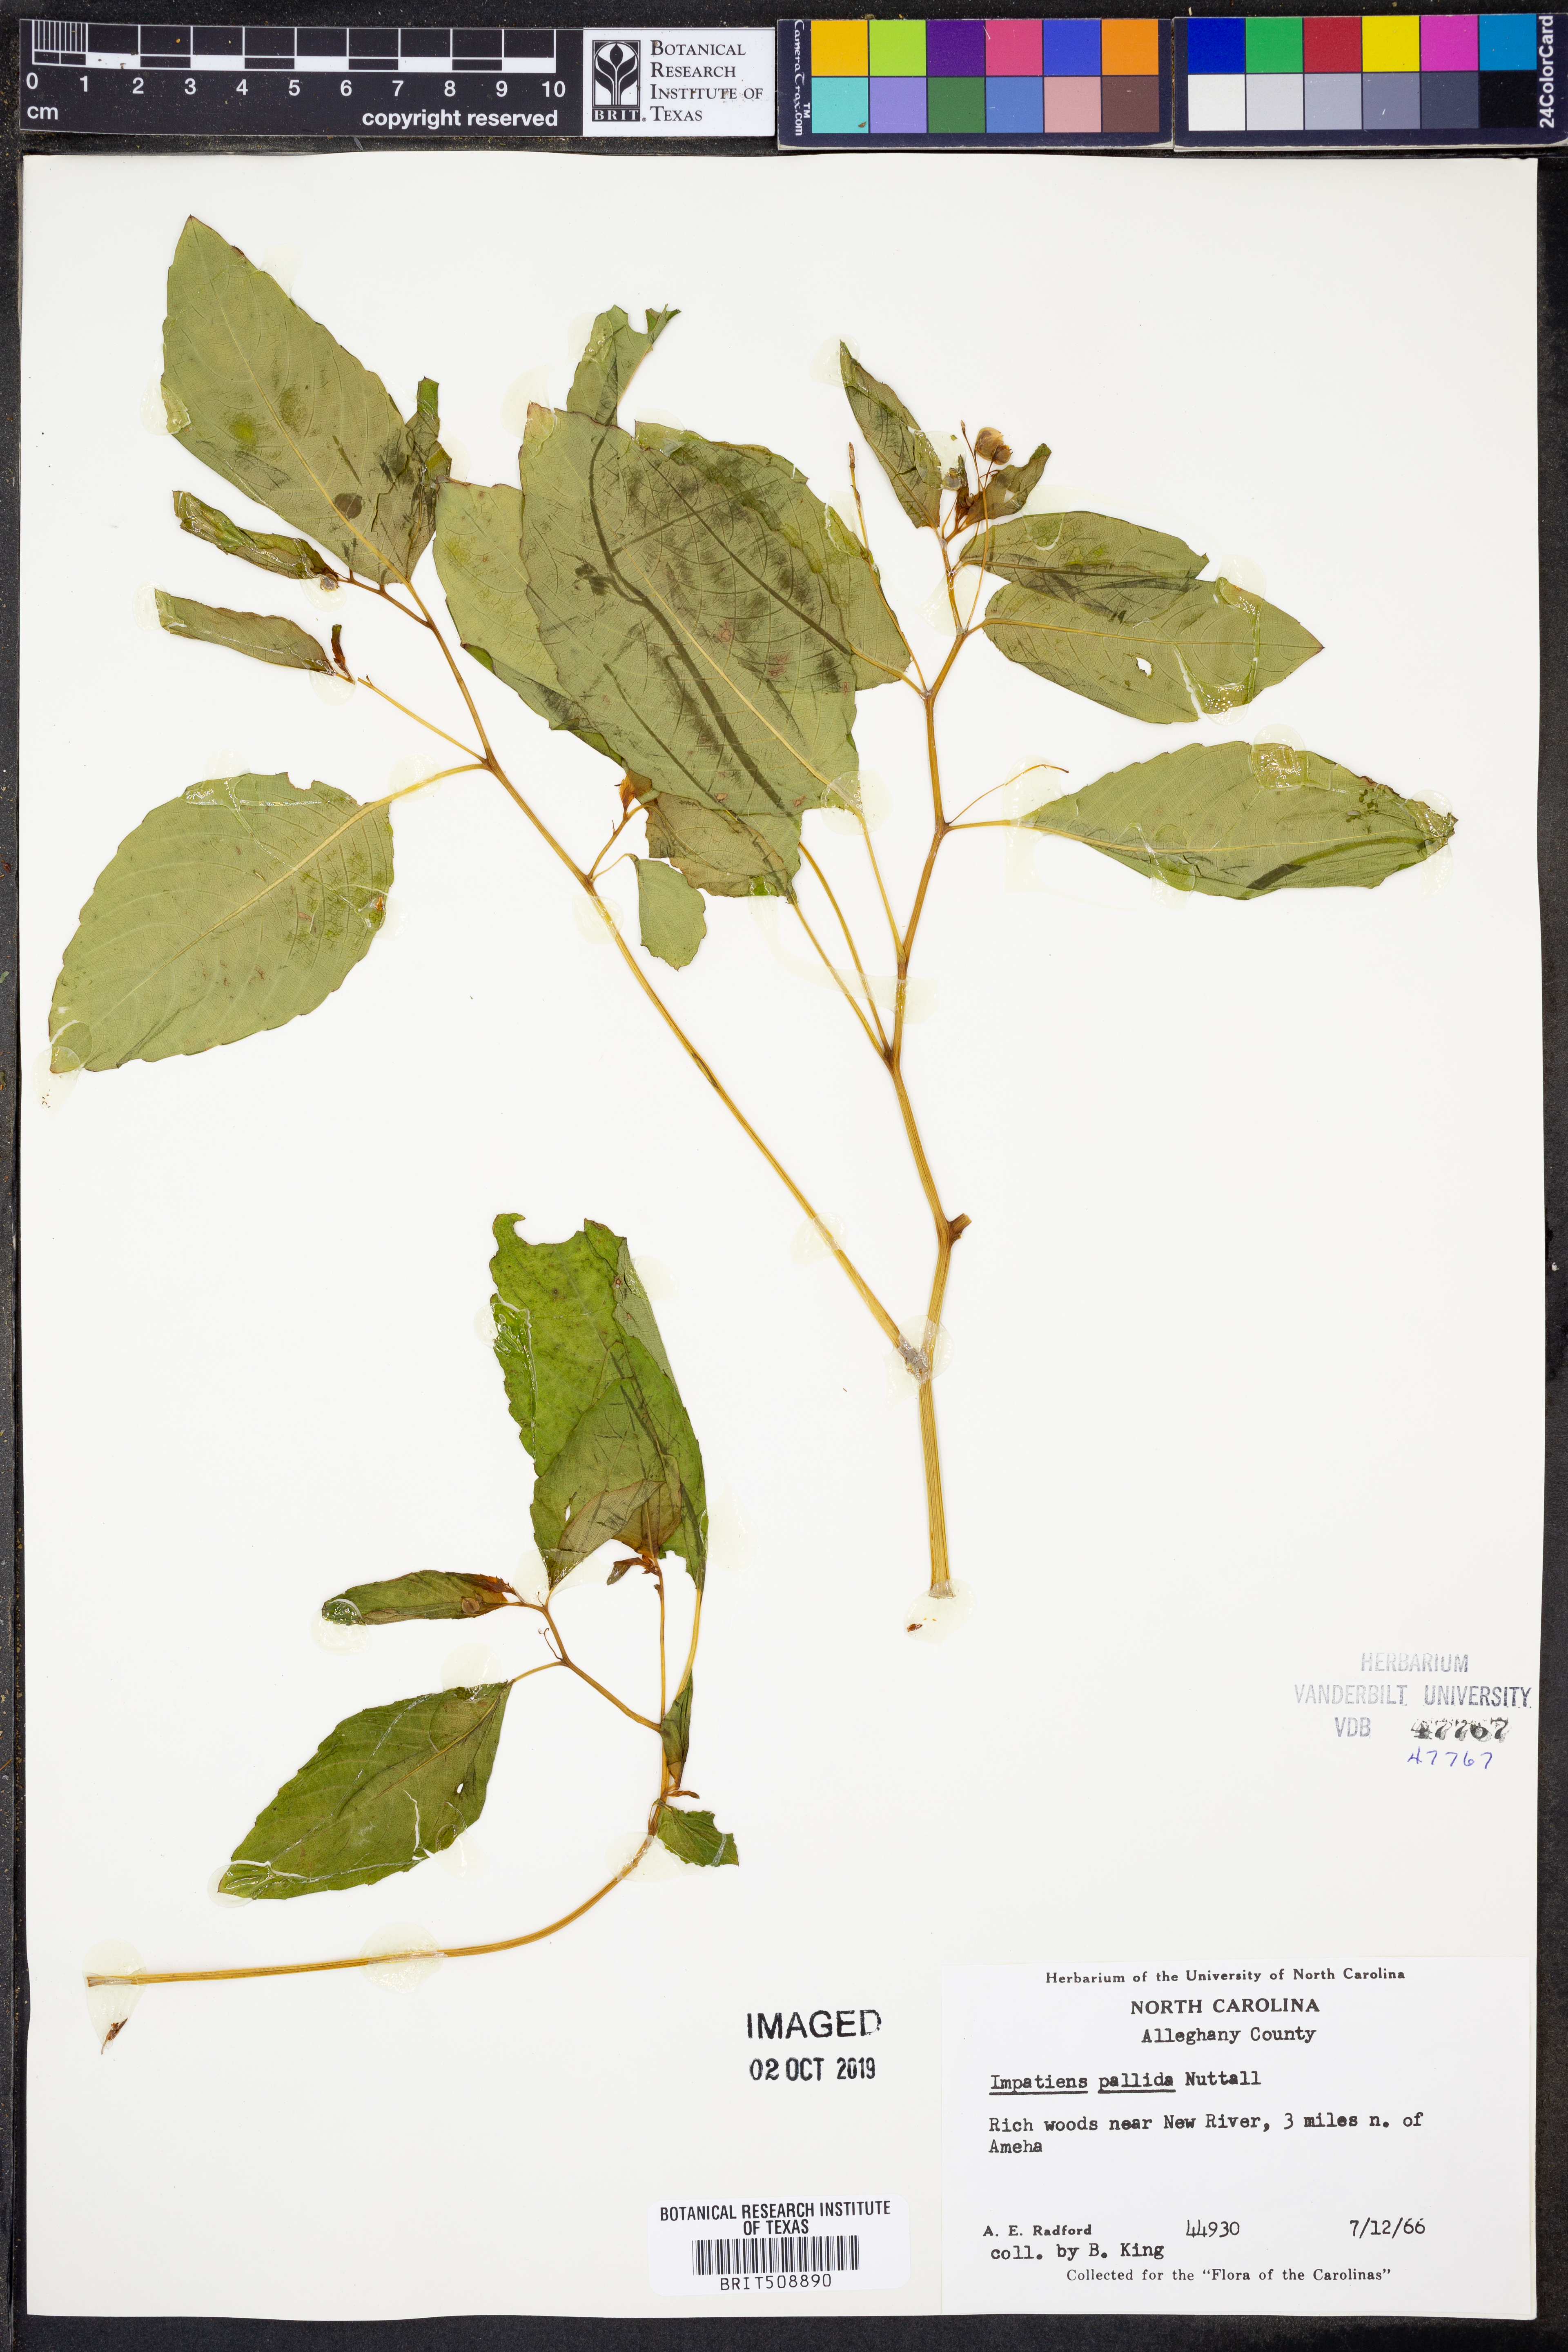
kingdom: Plantae
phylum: Tracheophyta
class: Magnoliopsida
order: Ericales
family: Balsaminaceae
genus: Impatiens
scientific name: Impatiens pallida
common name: Pale snapweed
